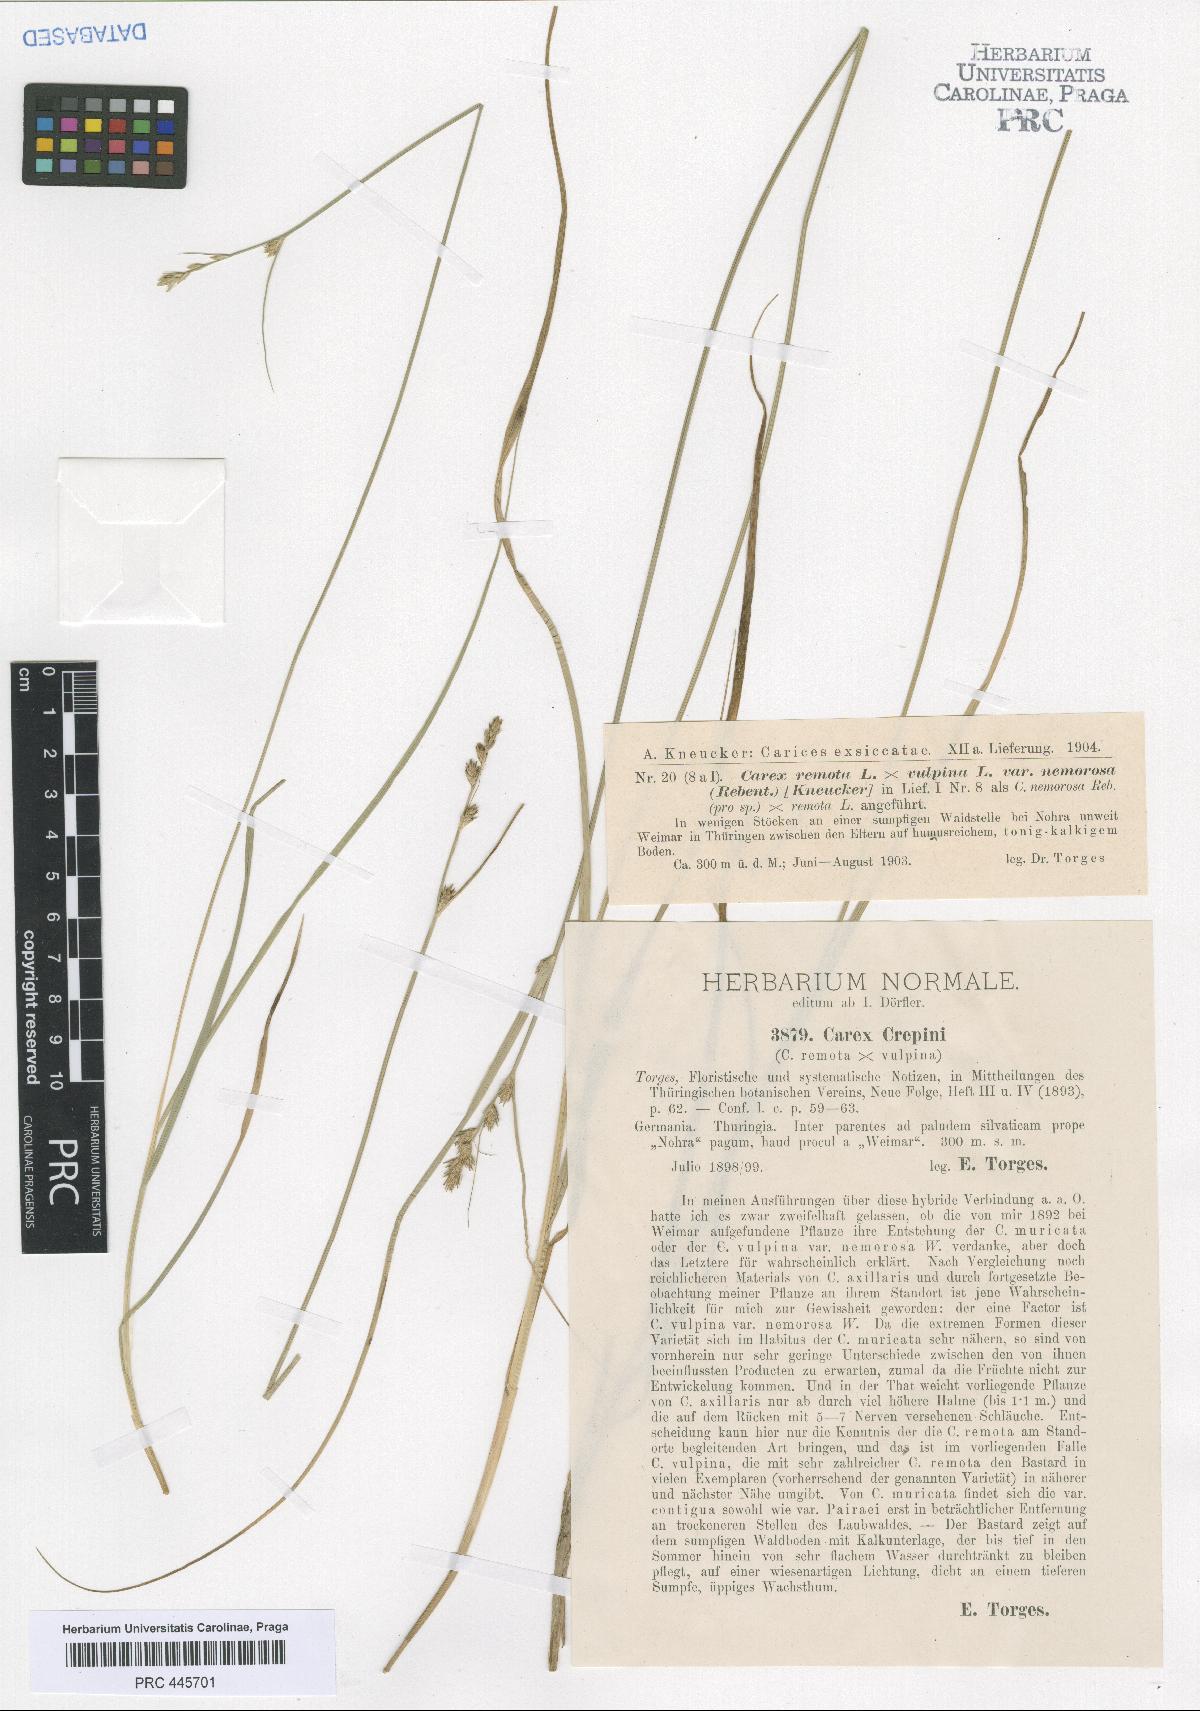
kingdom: Plantae
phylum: Tracheophyta
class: Liliopsida
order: Poales
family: Cyperaceae
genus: Carex
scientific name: Carex pseudoaxillaris
